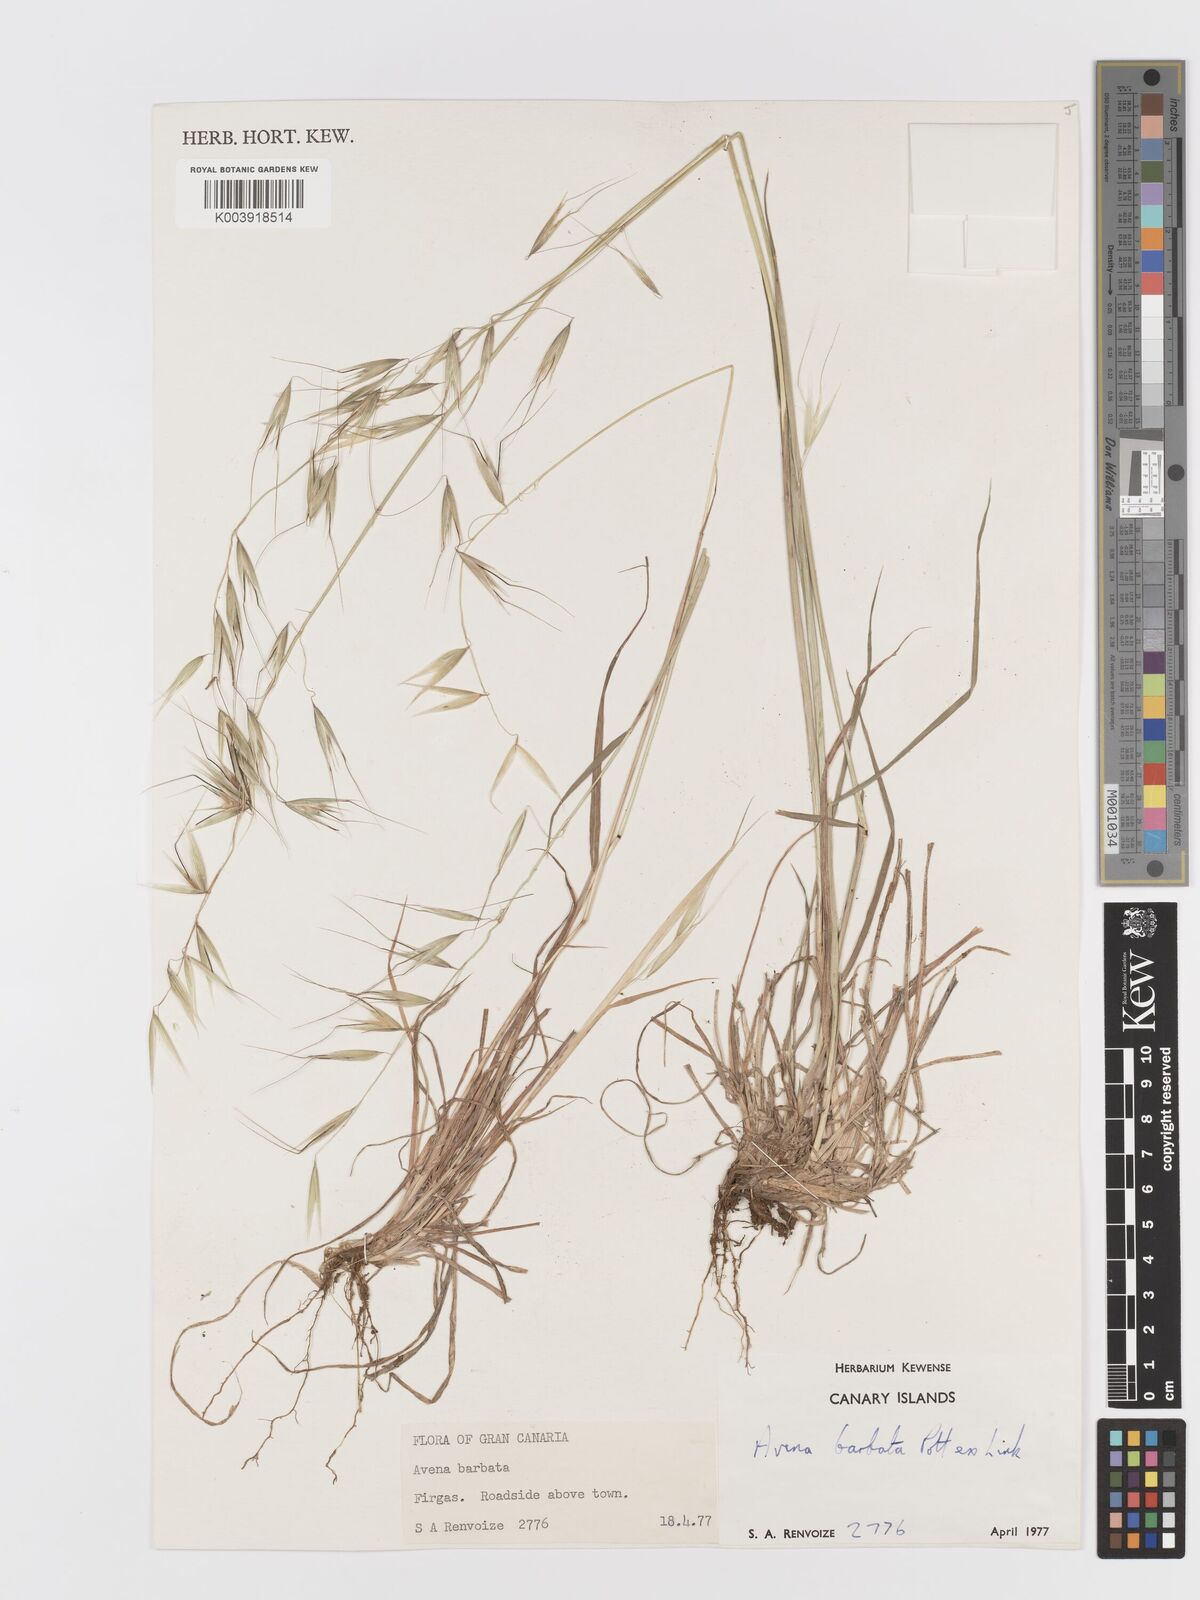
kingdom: Plantae
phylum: Tracheophyta
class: Liliopsida
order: Poales
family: Poaceae
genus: Avena
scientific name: Avena
